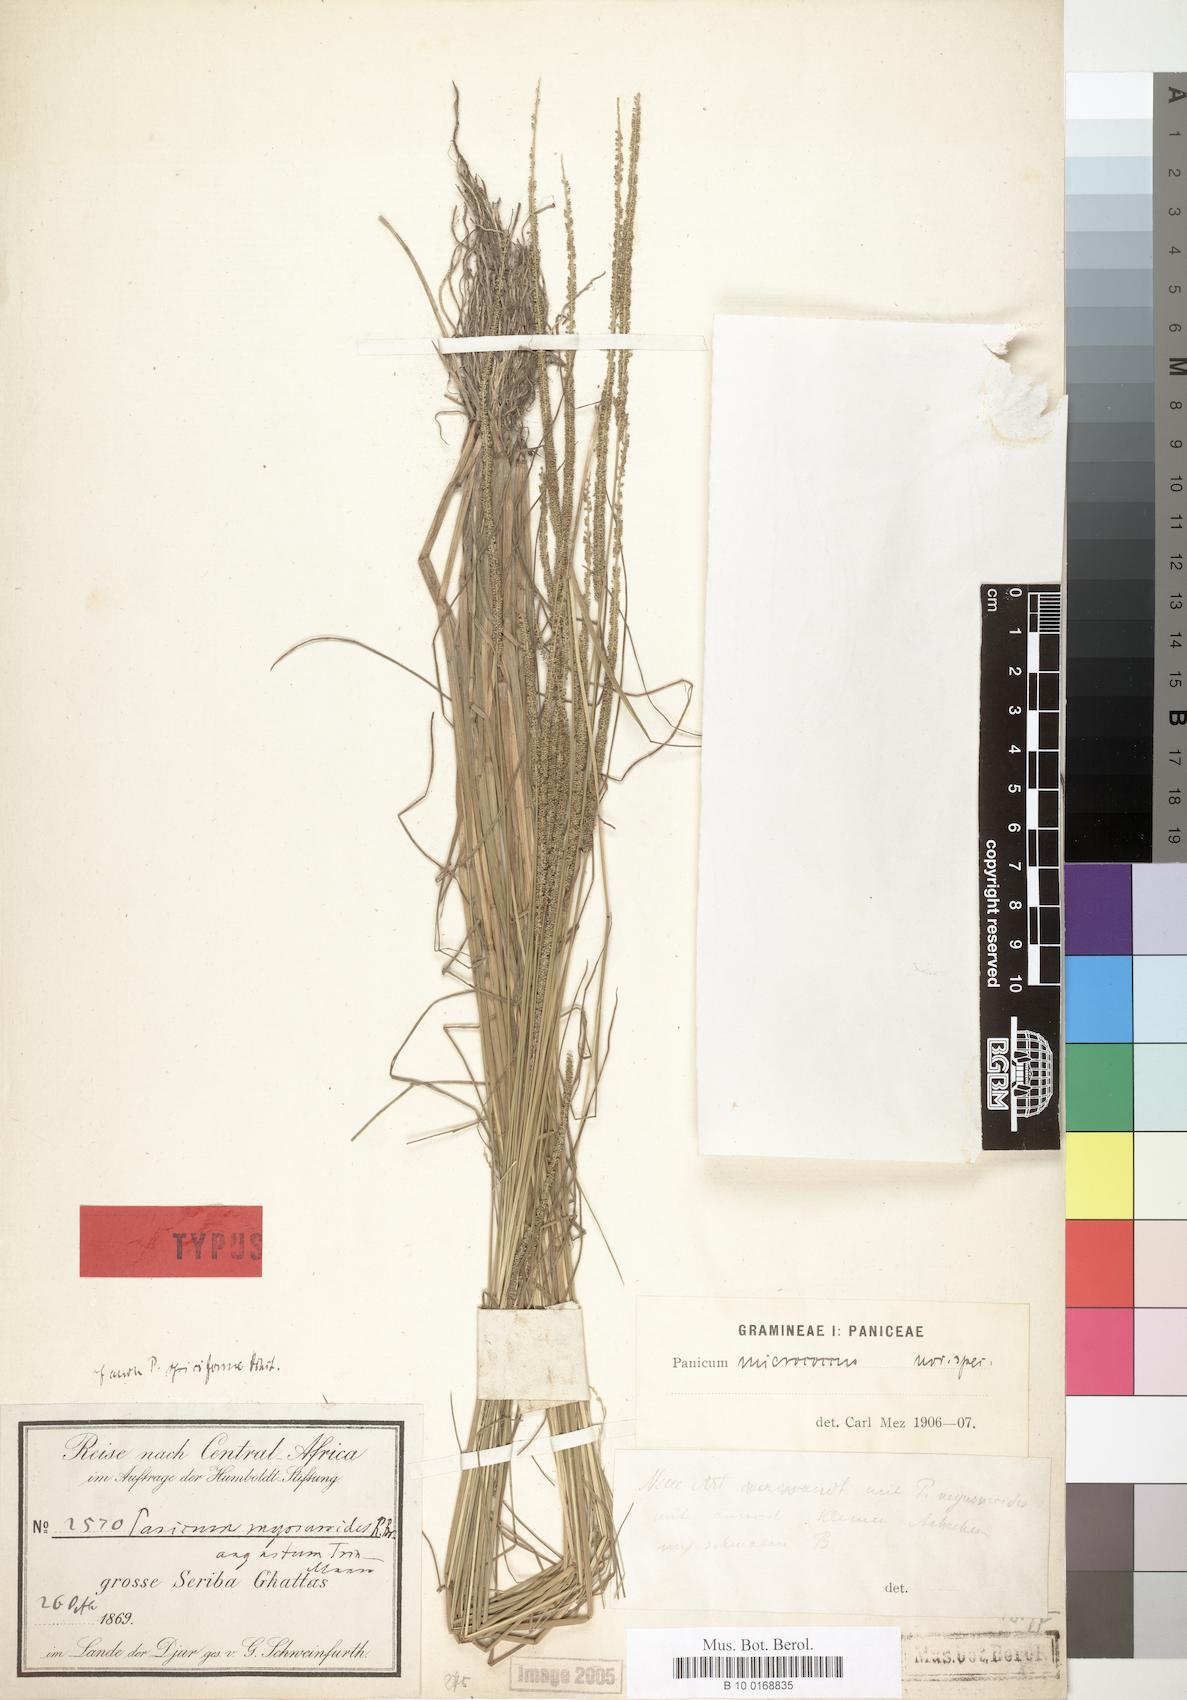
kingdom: Plantae
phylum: Tracheophyta
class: Liliopsida
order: Poales
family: Poaceae
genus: Sacciolepis
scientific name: Sacciolepis micrococca
